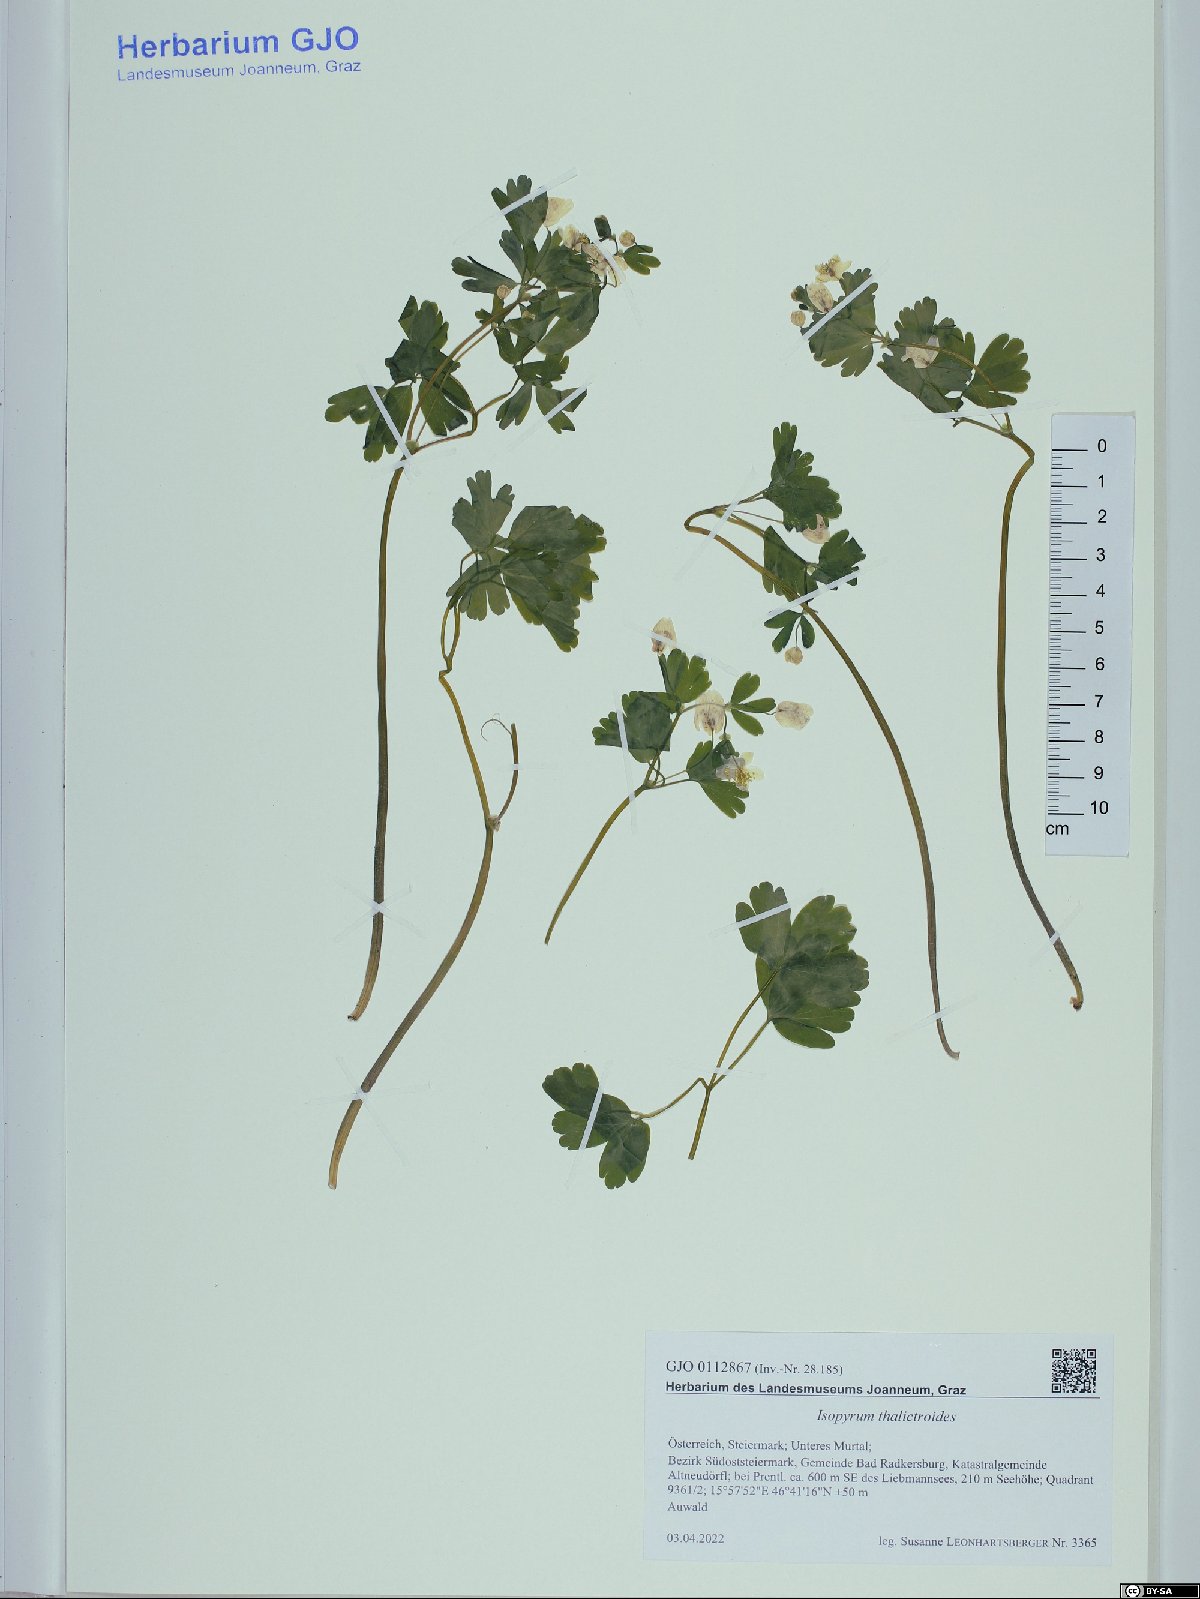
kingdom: Plantae
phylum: Tracheophyta
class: Magnoliopsida
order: Ranunculales
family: Ranunculaceae
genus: Isopyrum
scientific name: Isopyrum thalictroides
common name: Isopyrum
